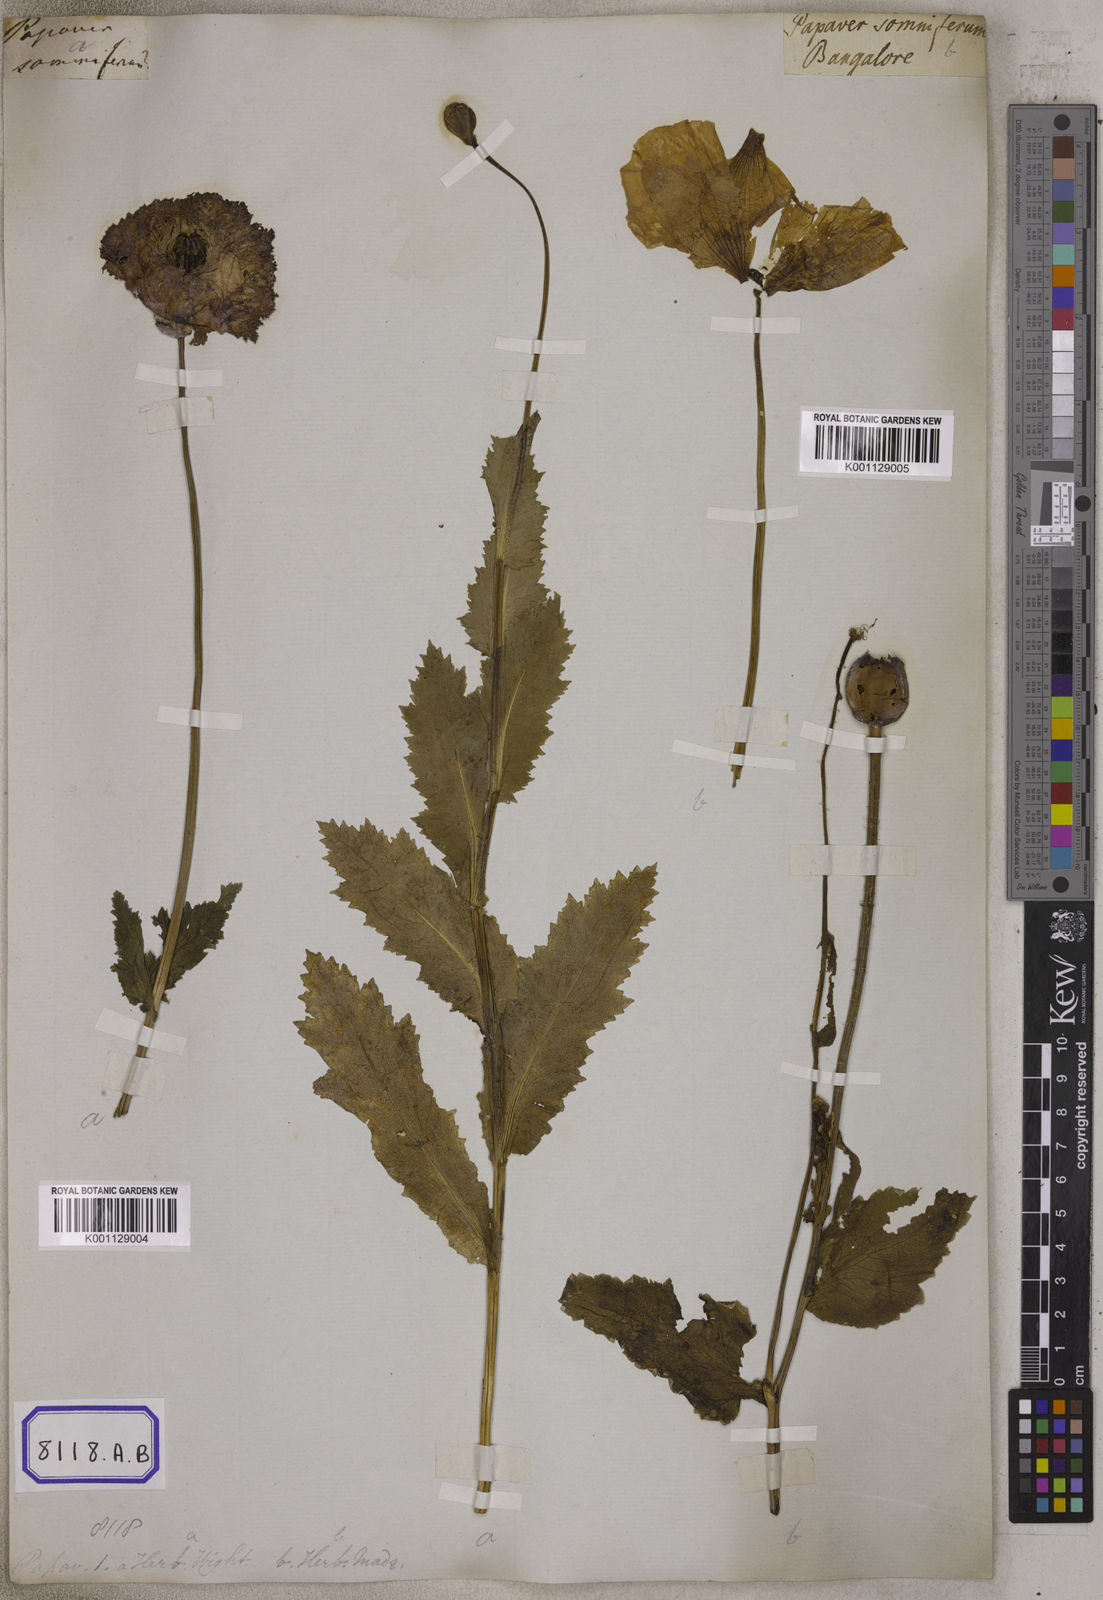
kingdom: Plantae
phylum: Tracheophyta
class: Magnoliopsida
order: Ranunculales
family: Papaveraceae
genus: Papaver
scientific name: Papaver somniferum
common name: Opium poppy
